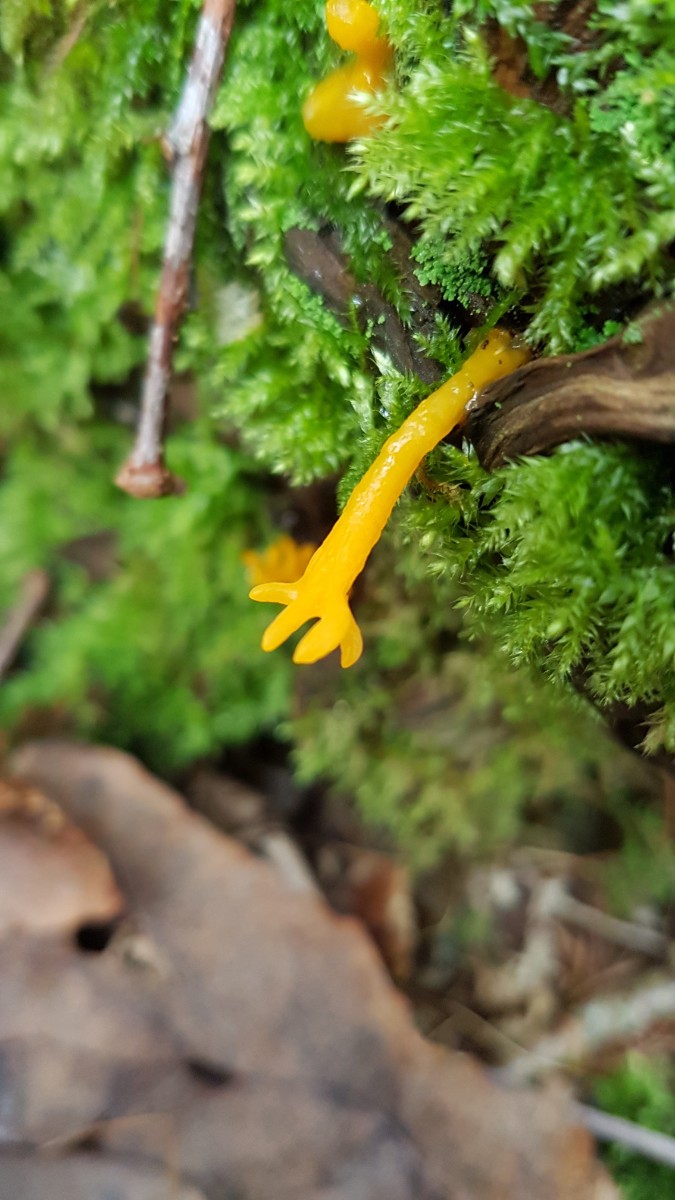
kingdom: Fungi
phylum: Basidiomycota
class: Dacrymycetes
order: Dacrymycetales
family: Dacrymycetaceae
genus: Calocera
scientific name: Calocera viscosa
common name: almindelig guldgaffel
